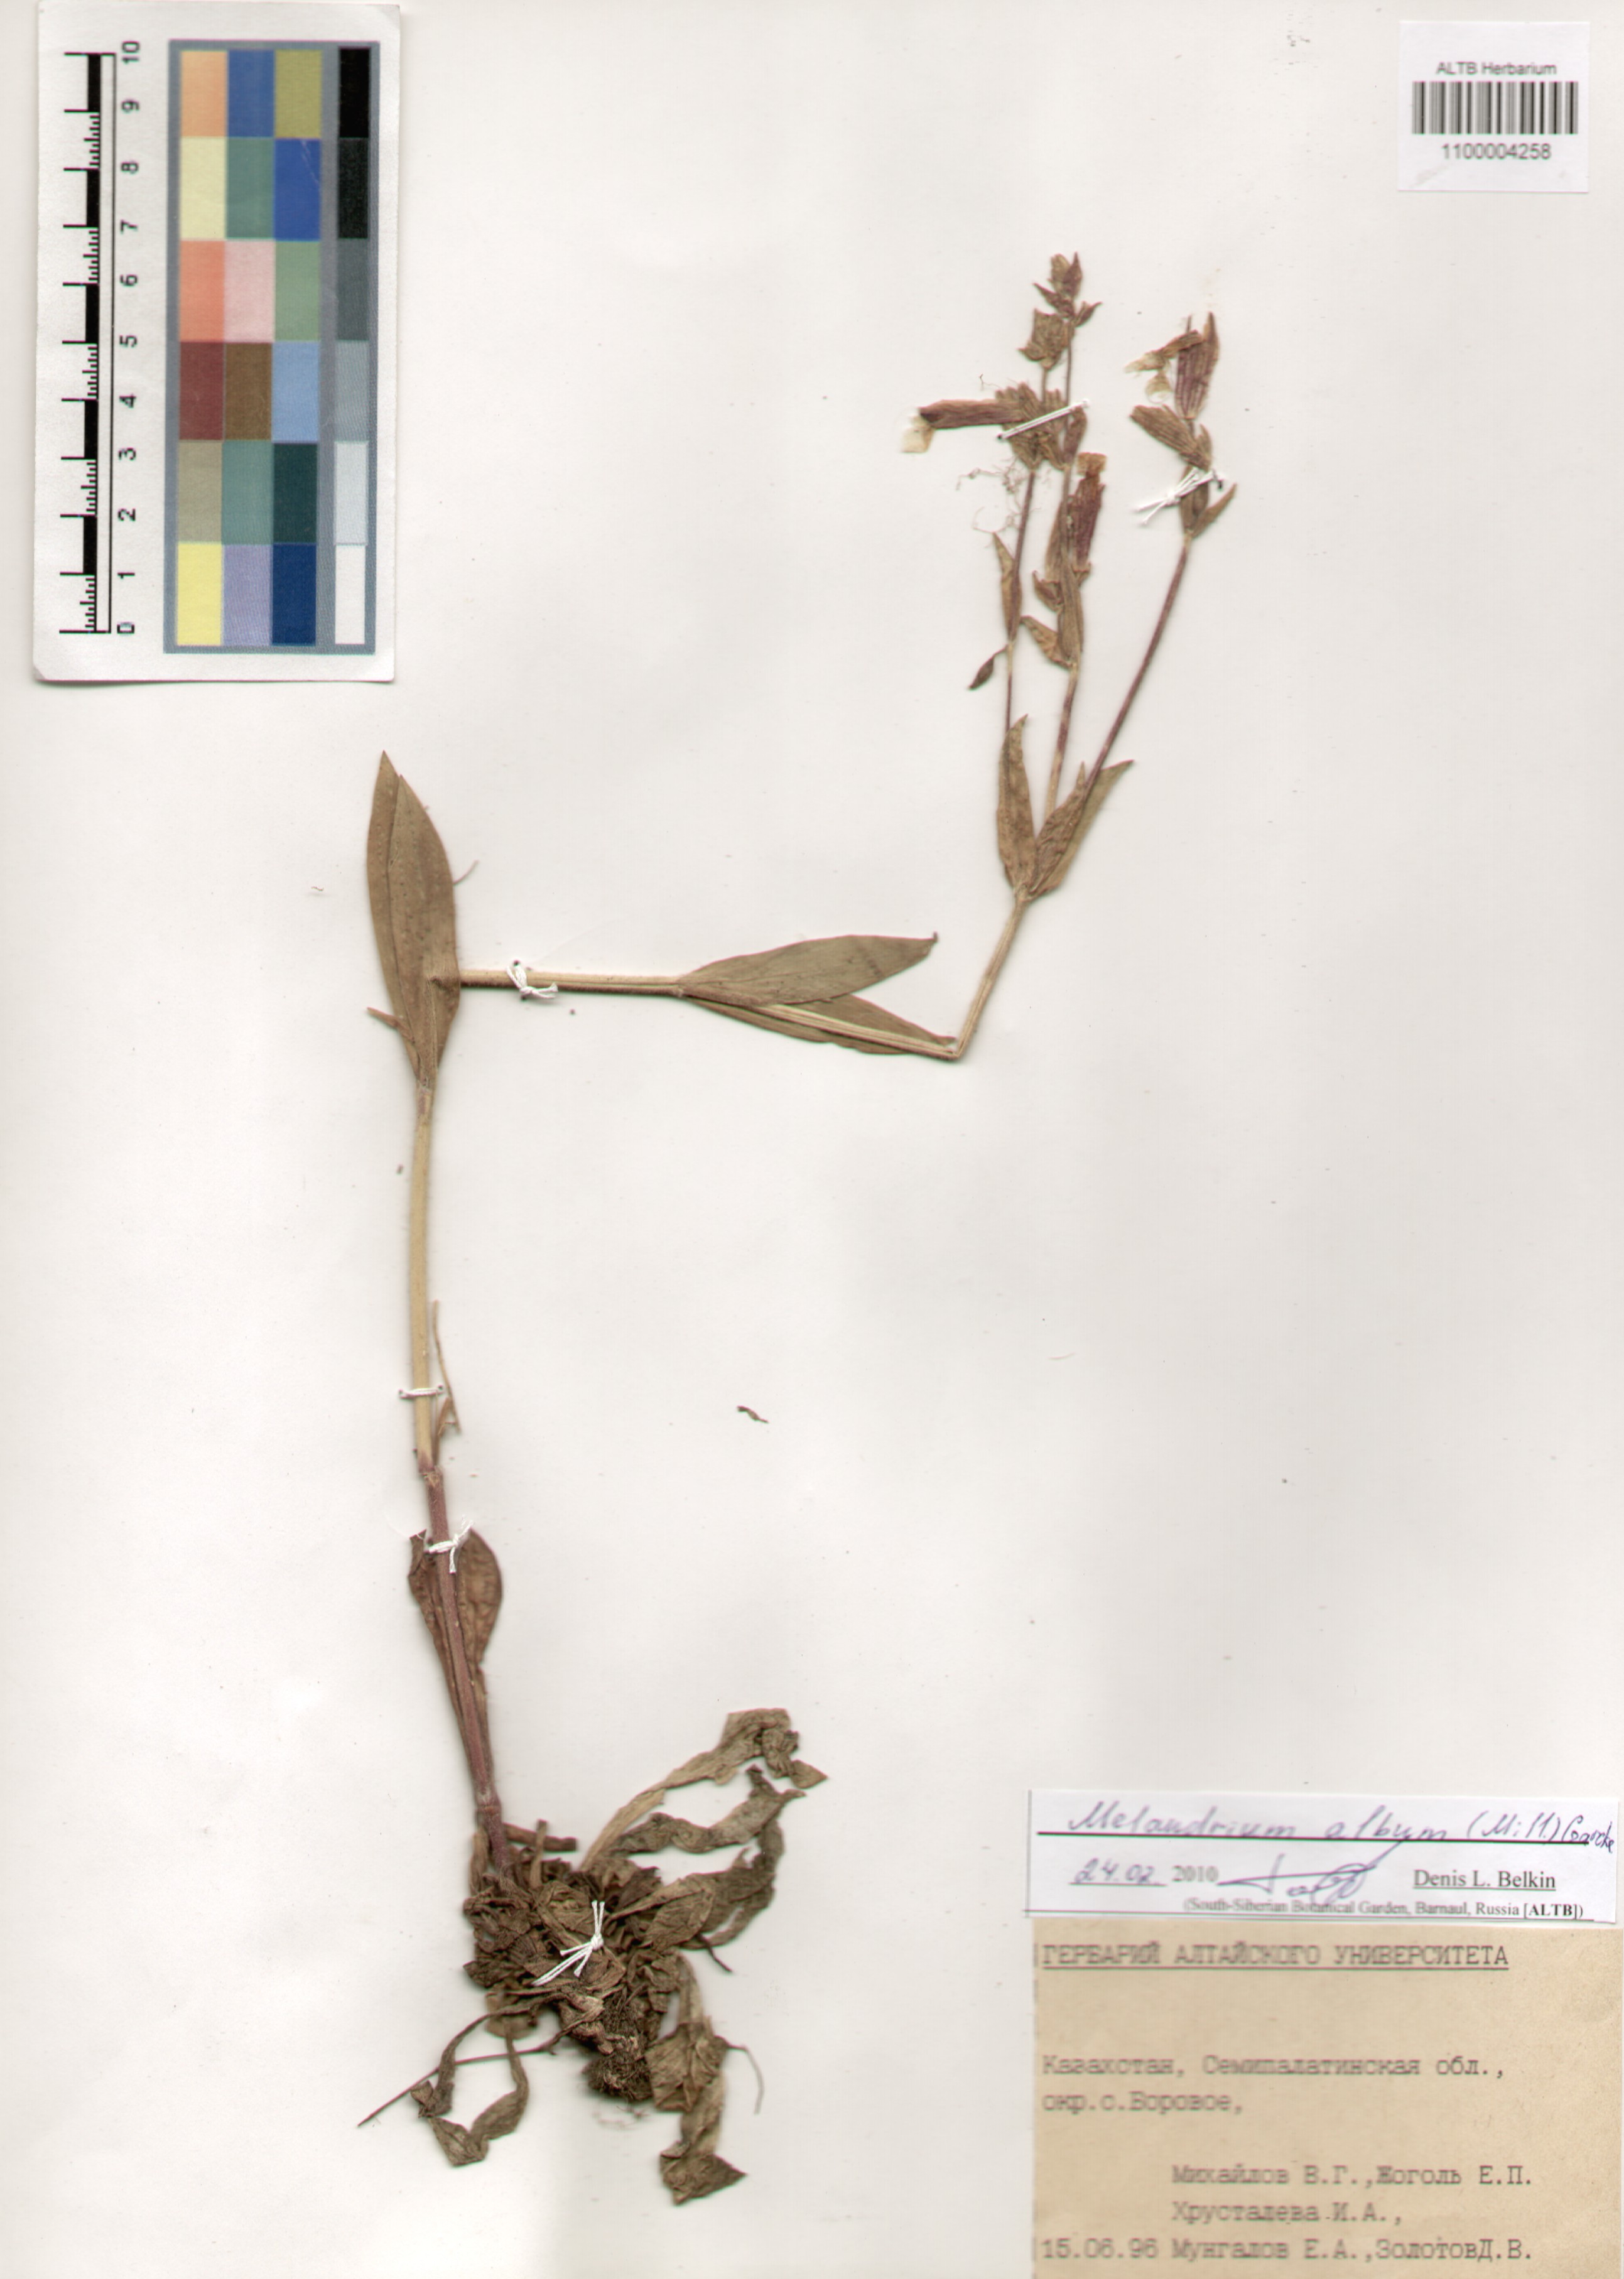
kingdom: Plantae
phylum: Tracheophyta
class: Magnoliopsida
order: Caryophyllales
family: Caryophyllaceae
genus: Silene
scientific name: Silene latifolia
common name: White campion
